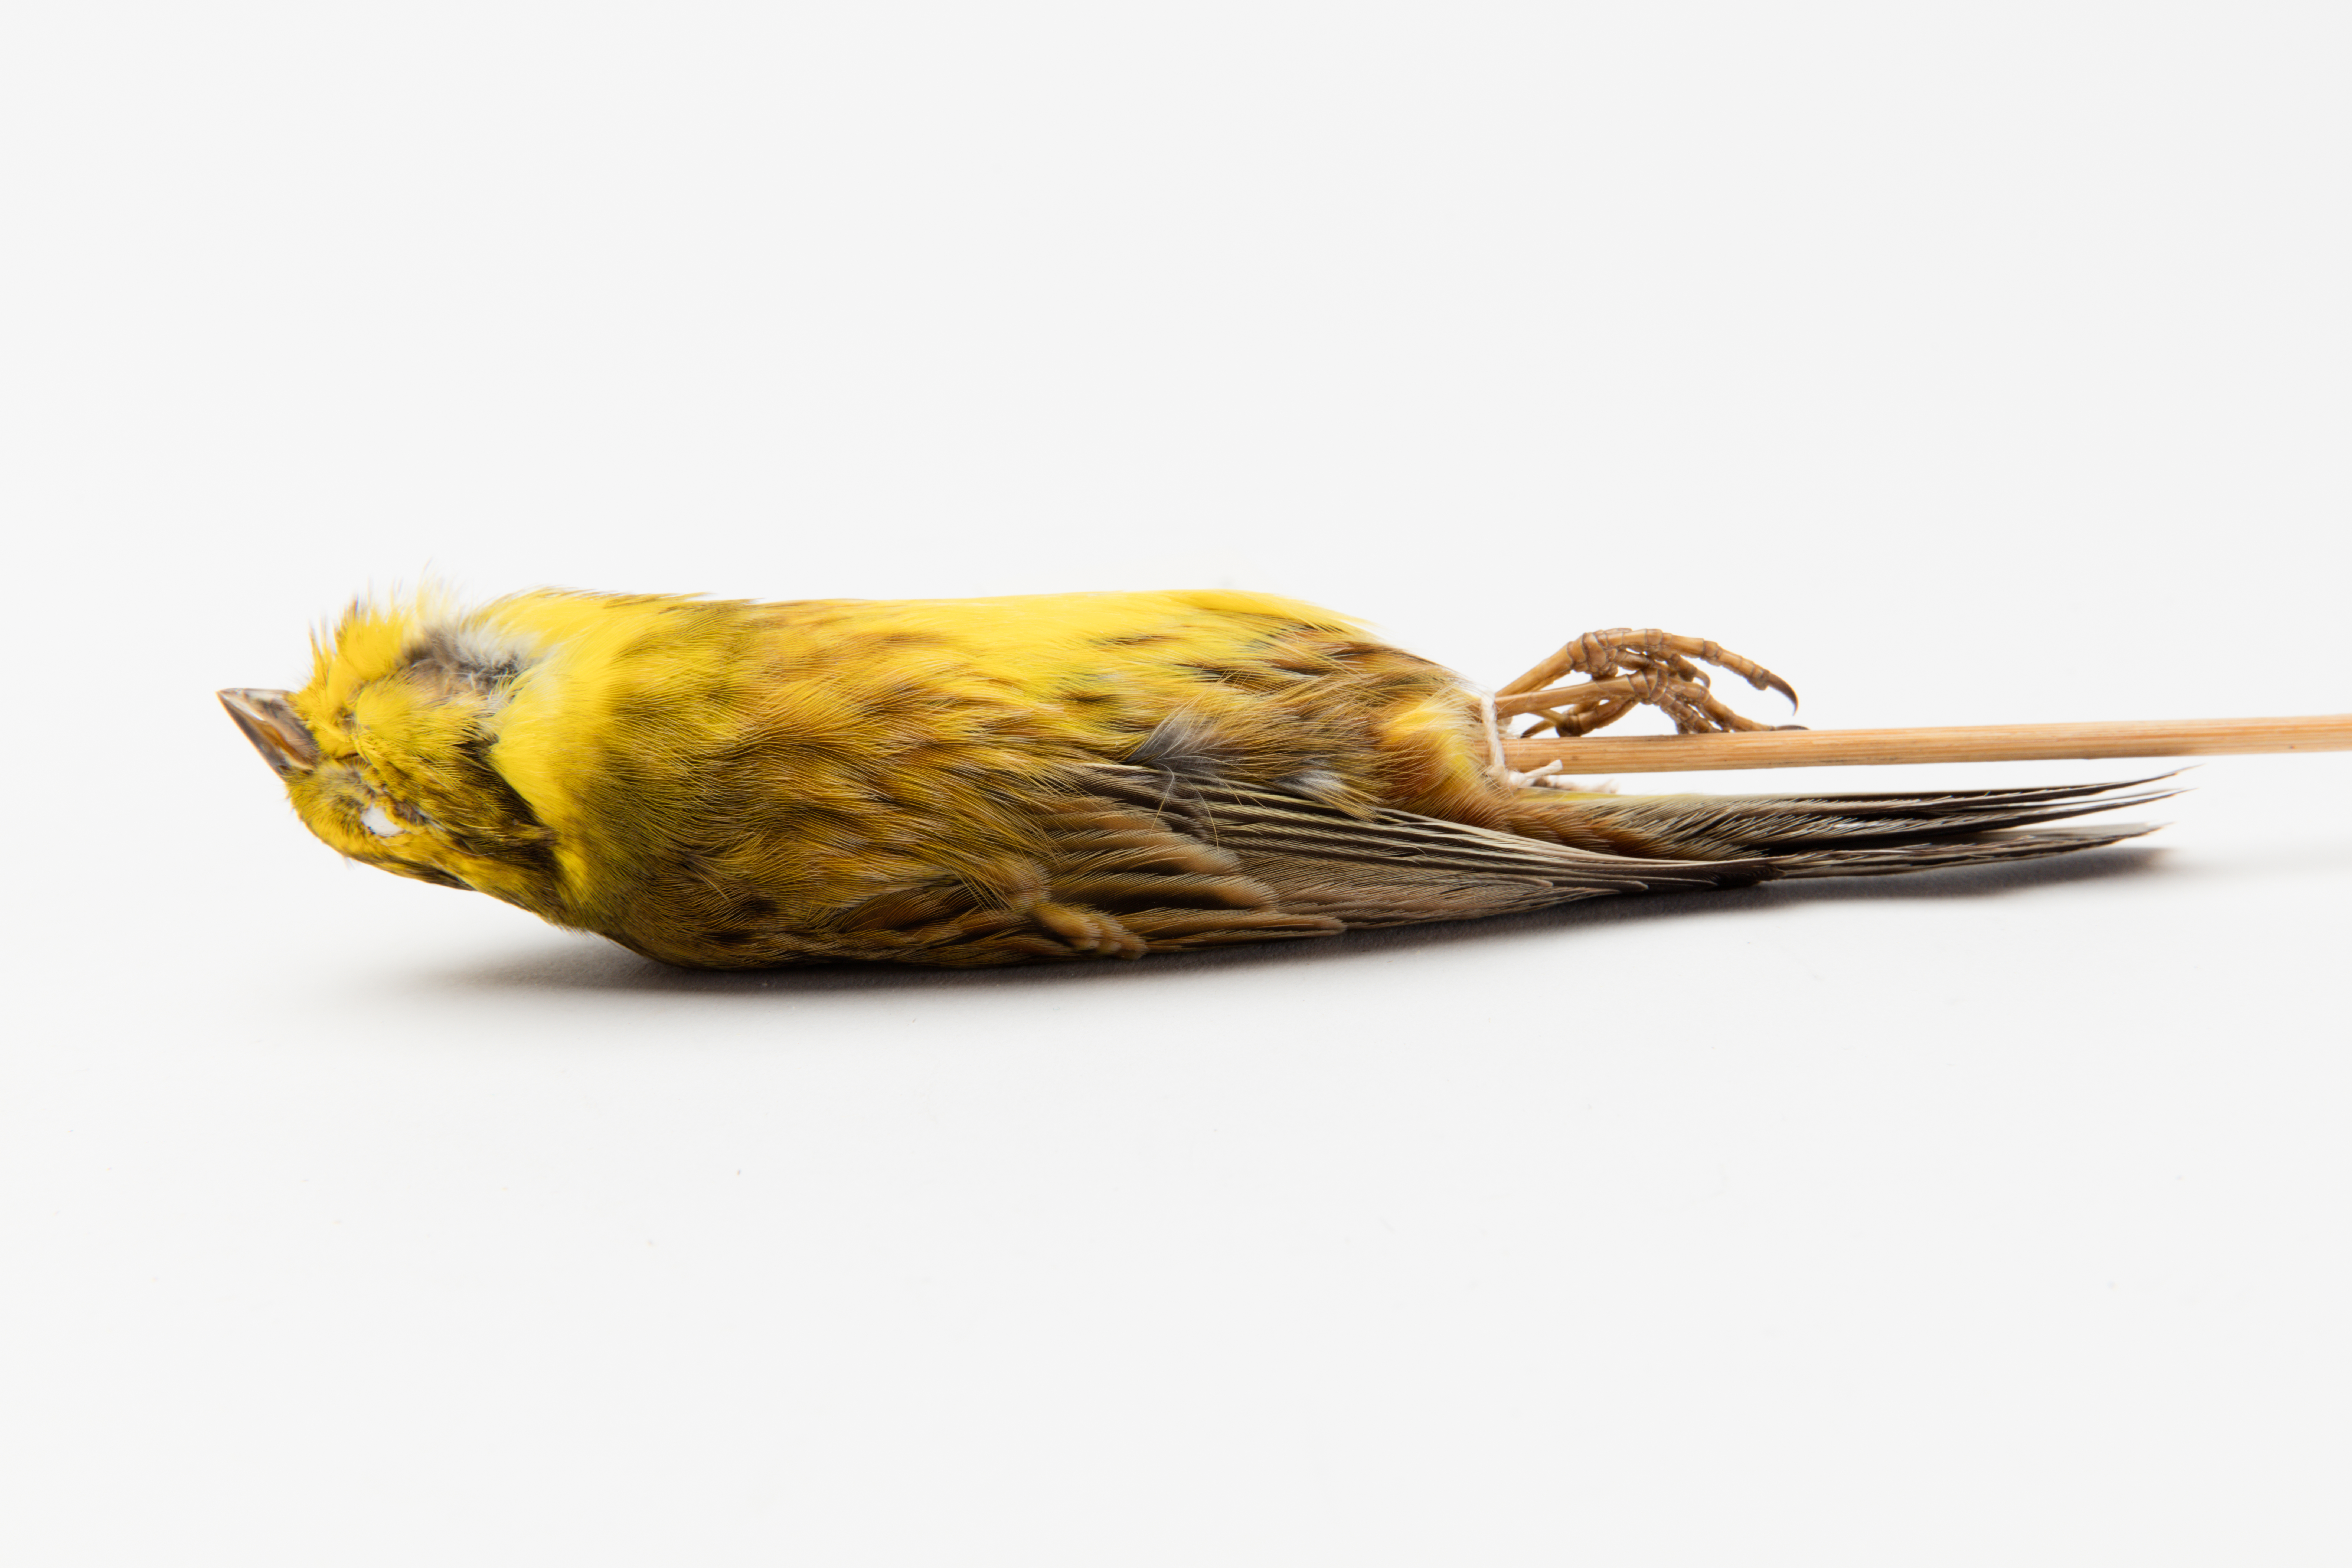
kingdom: Animalia
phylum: Chordata
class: Aves
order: Passeriformes
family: Emberizidae
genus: Emberiza
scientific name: Emberiza citrinella
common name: Yellowhammer
